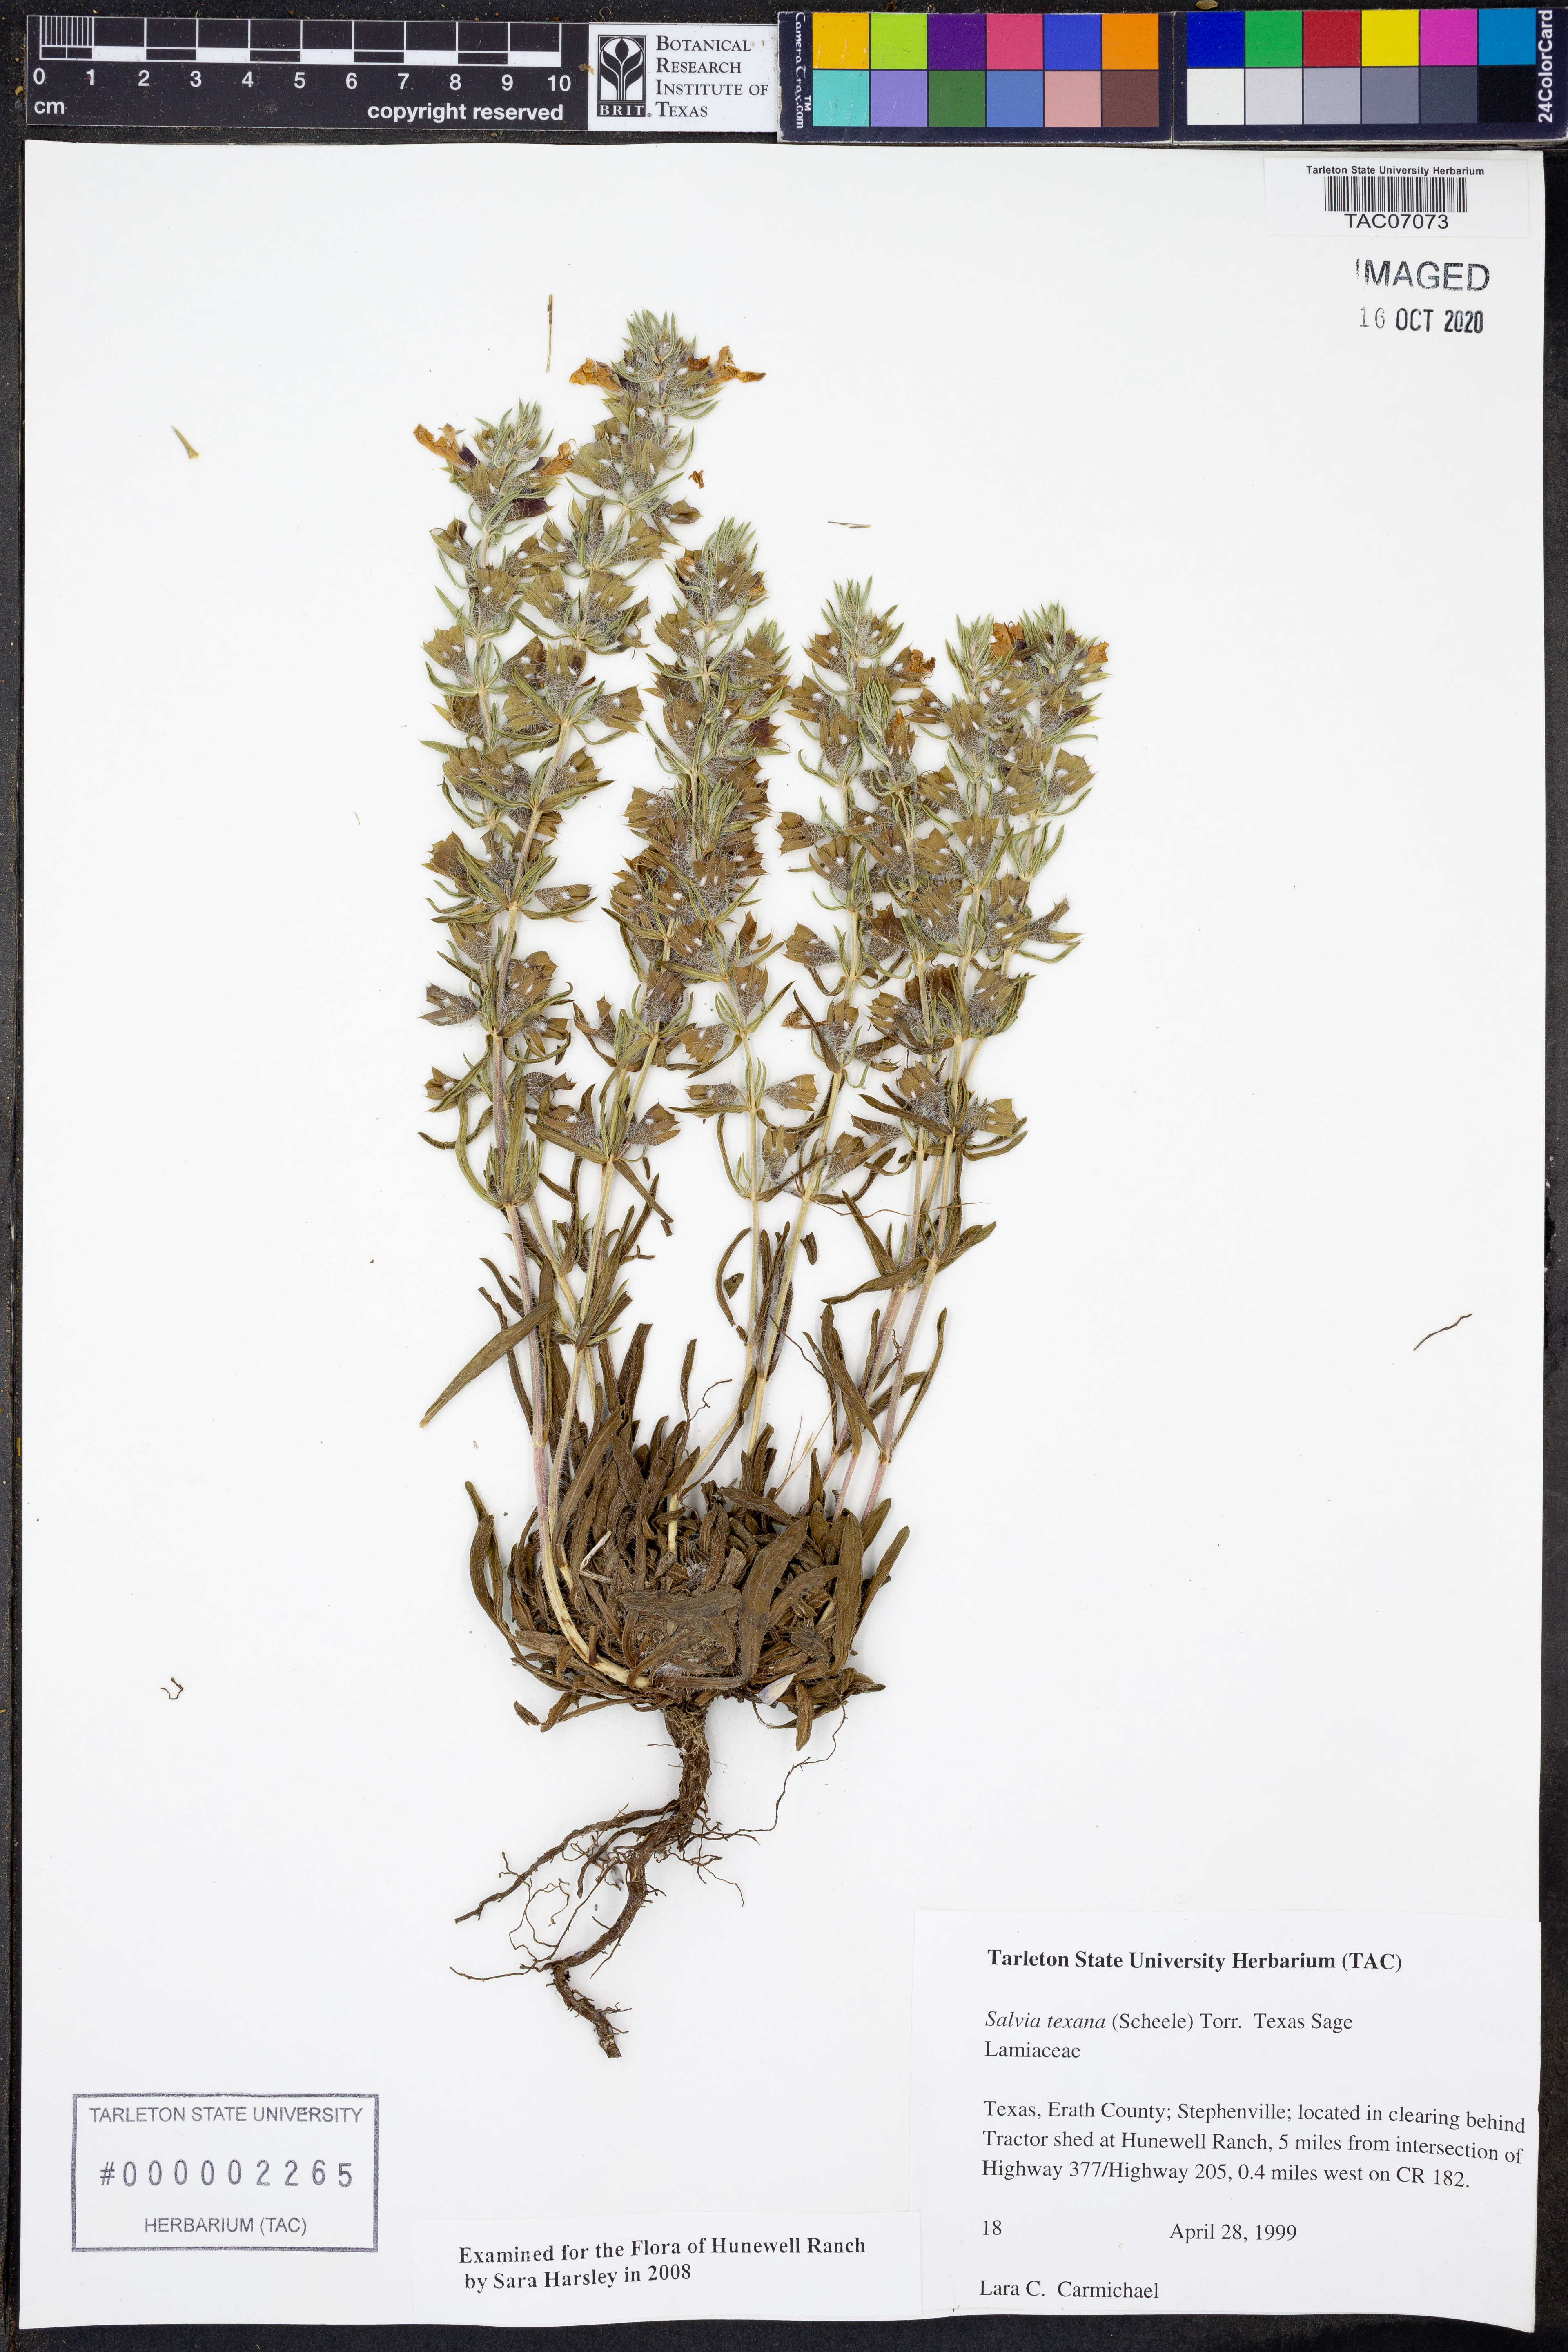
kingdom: Plantae
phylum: Tracheophyta
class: Magnoliopsida
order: Lamiales
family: Lamiaceae
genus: Salvia
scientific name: Salvia texana
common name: Texas sage
